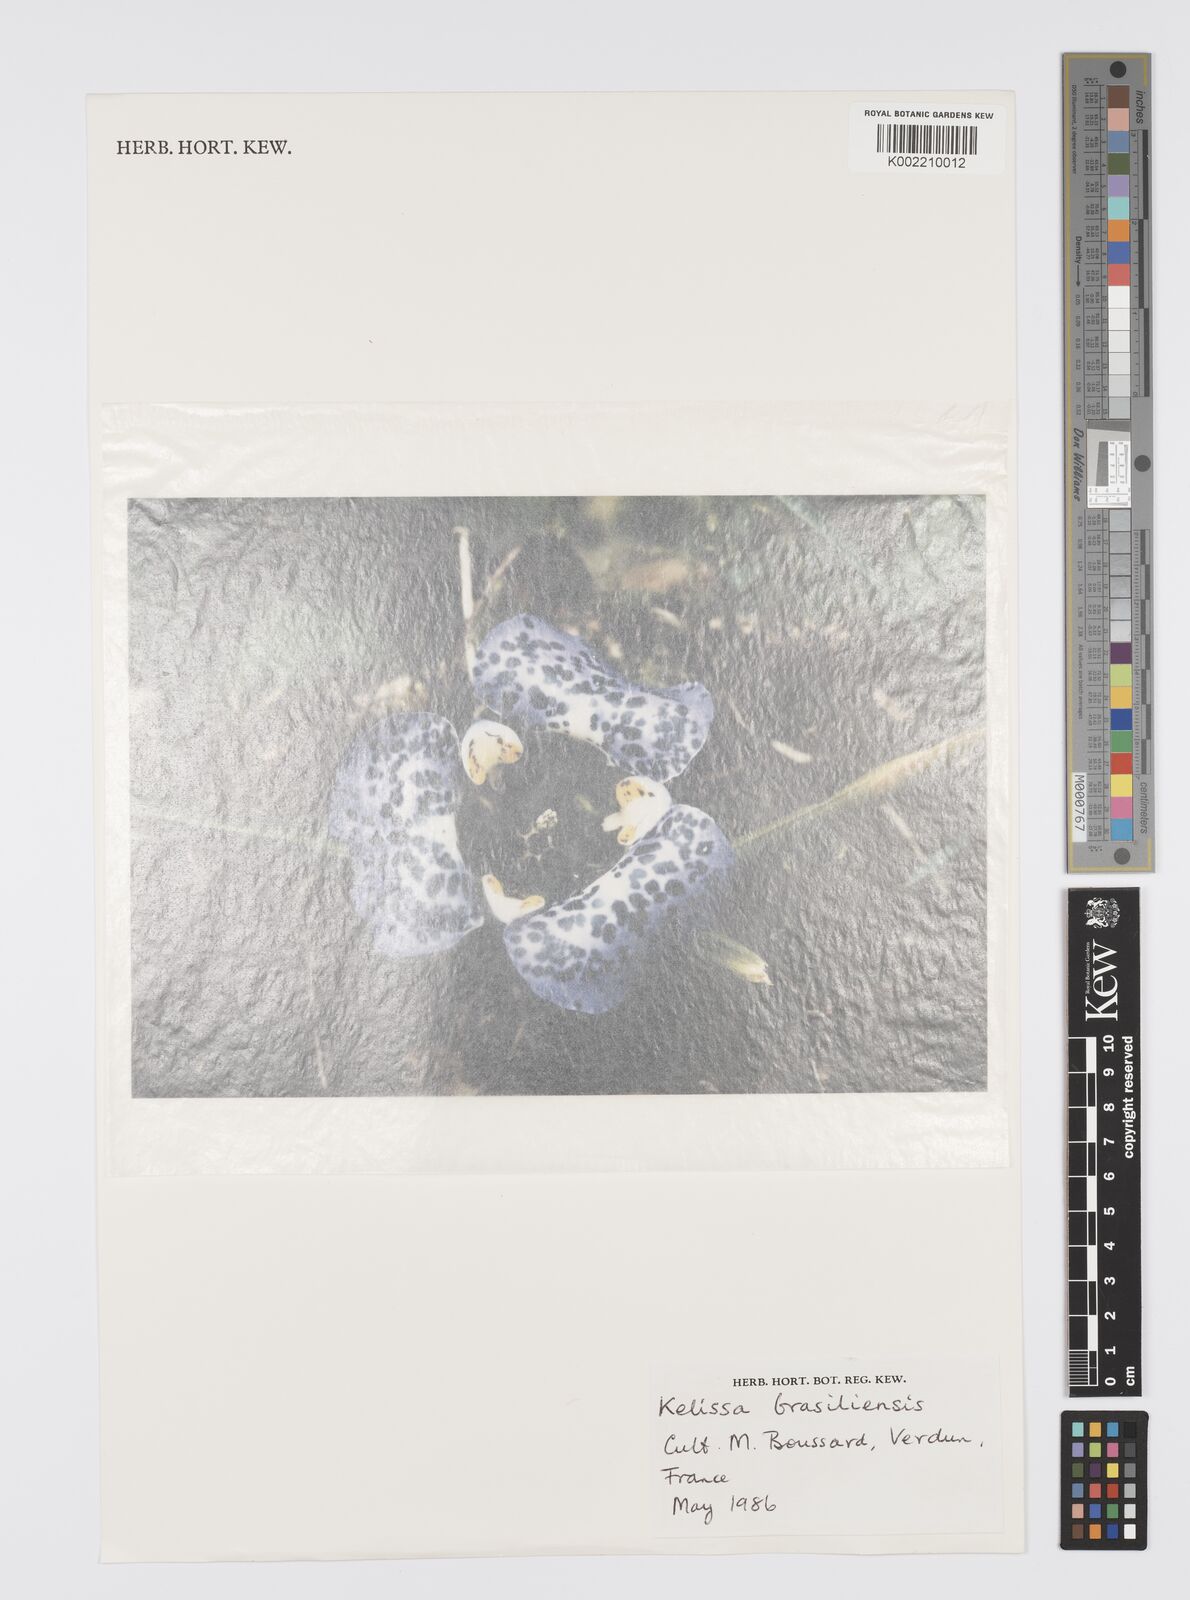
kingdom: Plantae
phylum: Tracheophyta
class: Liliopsida
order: Asparagales
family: Iridaceae
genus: Cypella
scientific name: Cypella brasiliensis
